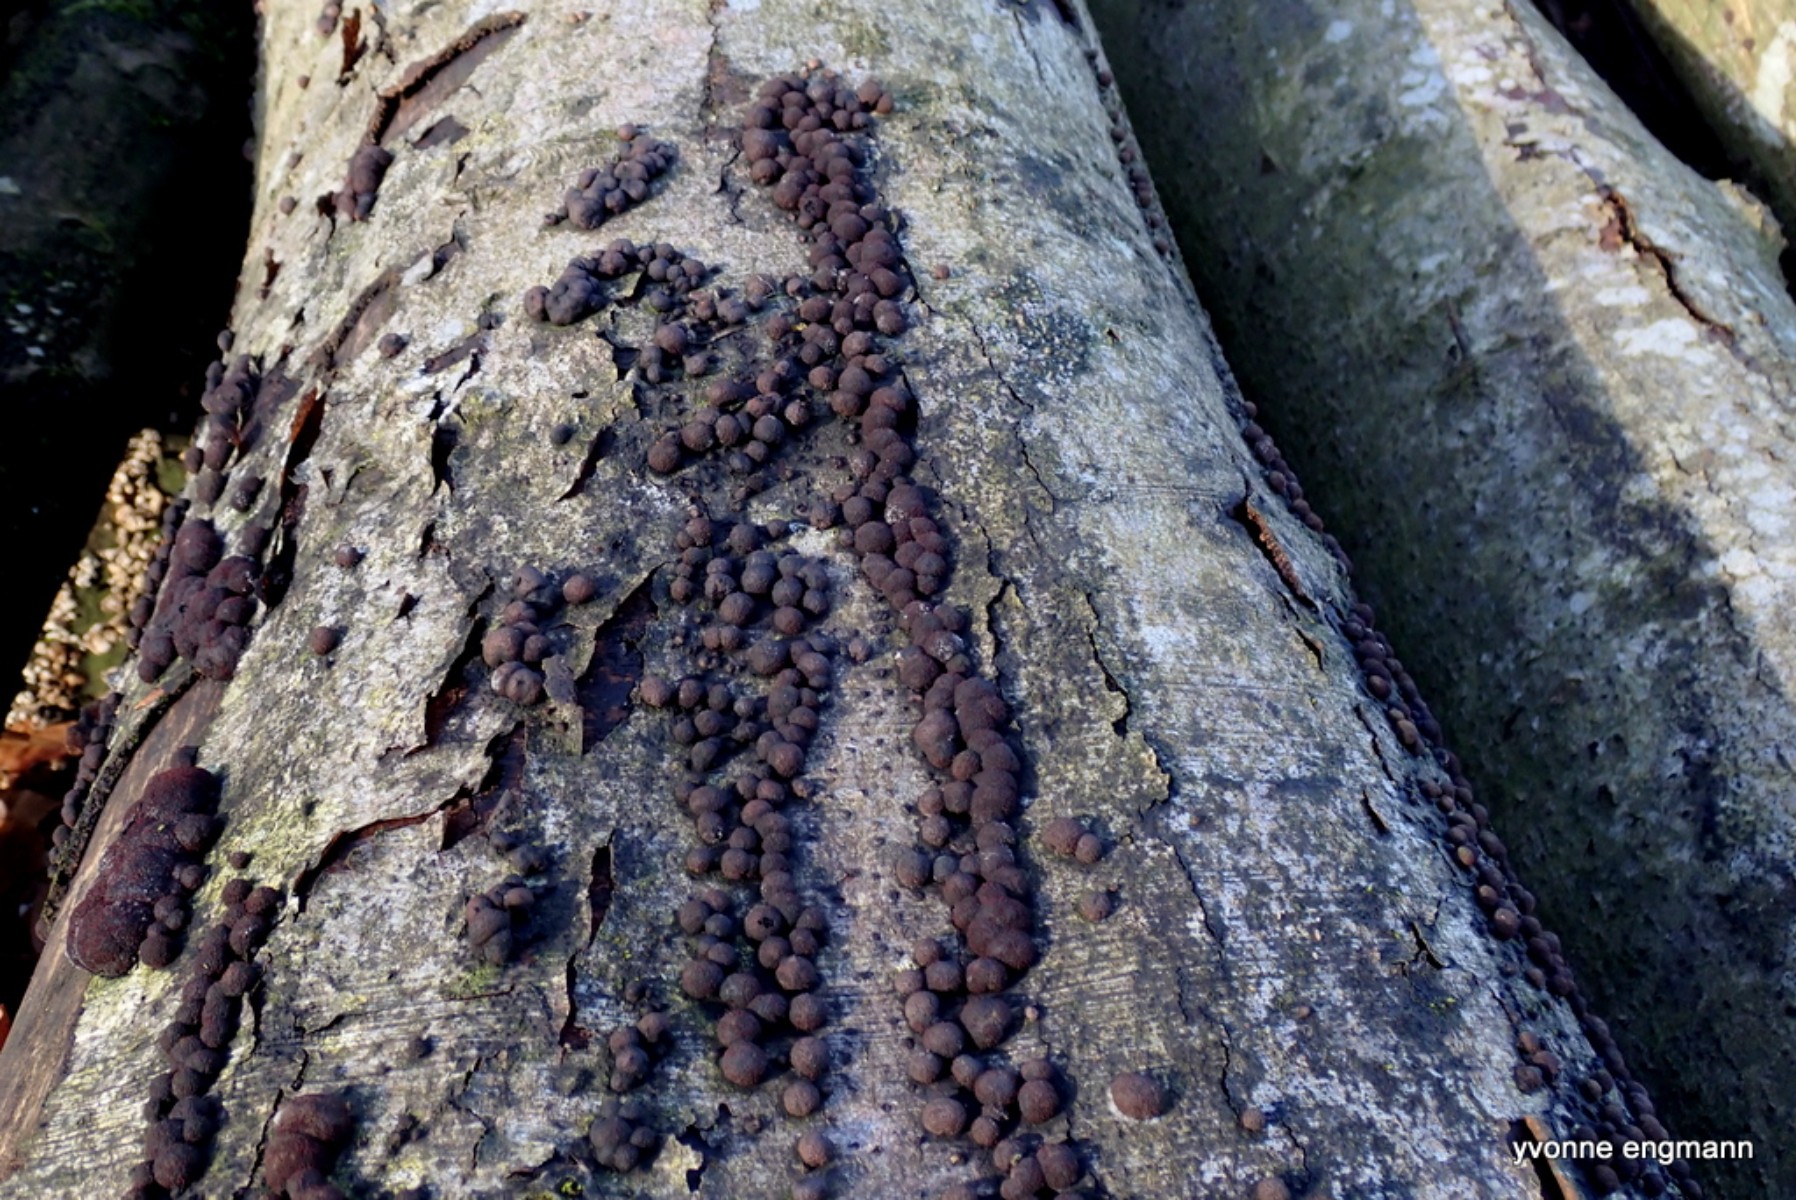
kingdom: Fungi
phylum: Ascomycota
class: Sordariomycetes
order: Xylariales
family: Hypoxylaceae
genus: Hypoxylon
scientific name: Hypoxylon fragiforme
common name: kuljordbær
